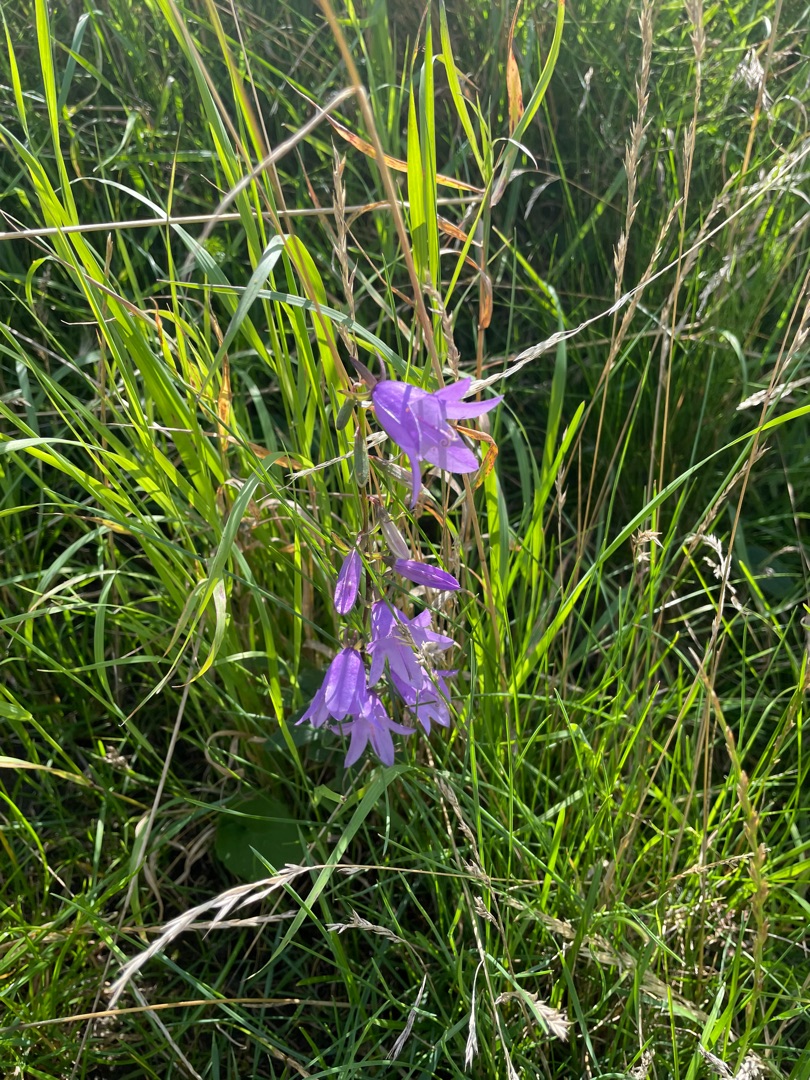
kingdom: Plantae
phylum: Tracheophyta
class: Magnoliopsida
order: Asterales
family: Campanulaceae
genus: Campanula
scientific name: Campanula rapunculoides
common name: Ensidig klokke
